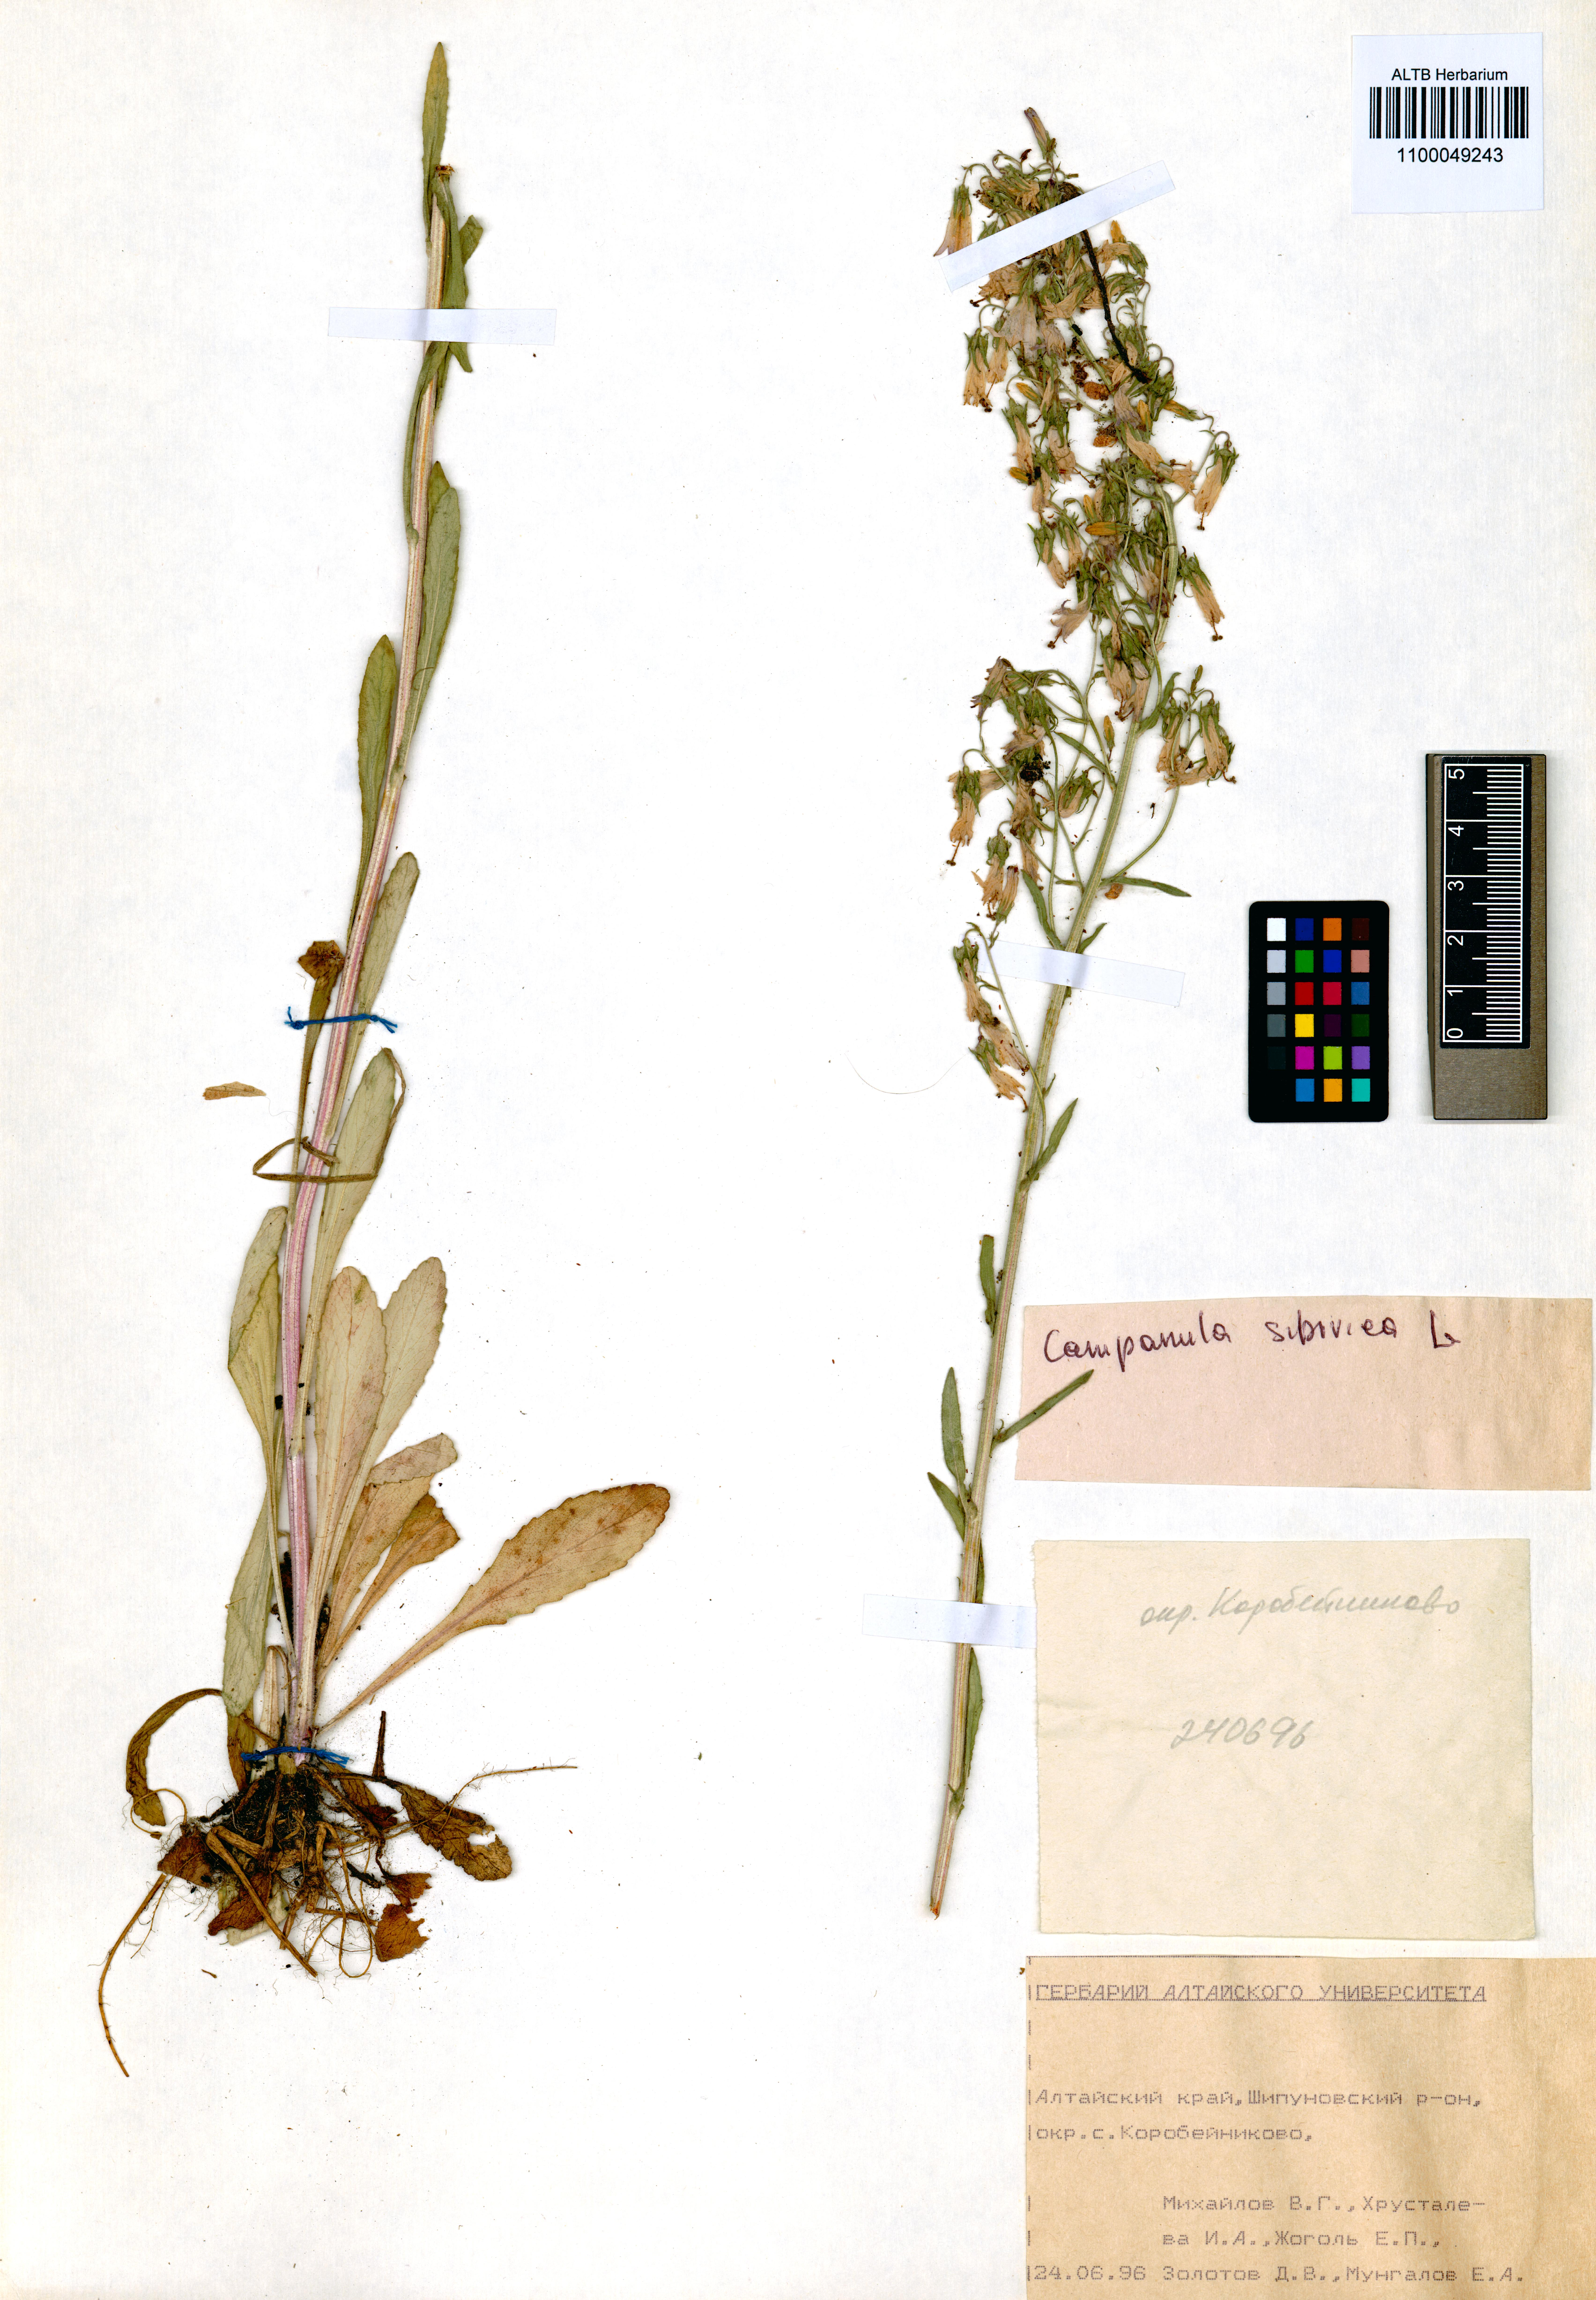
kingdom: Plantae
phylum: Tracheophyta
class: Magnoliopsida
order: Asterales
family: Campanulaceae
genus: Campanula
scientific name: Campanula sibirica
